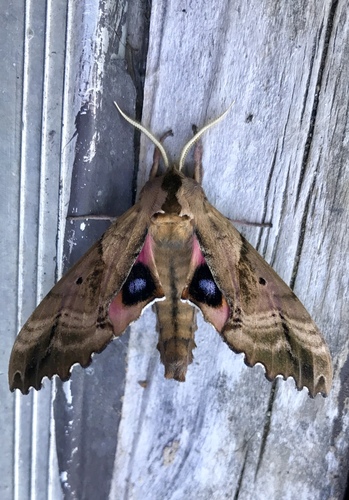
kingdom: Animalia
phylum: Arthropoda
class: Insecta
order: Lepidoptera
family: Sphingidae
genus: Paonias
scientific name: Paonias excaecata
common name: Blind-eyed sphinx
